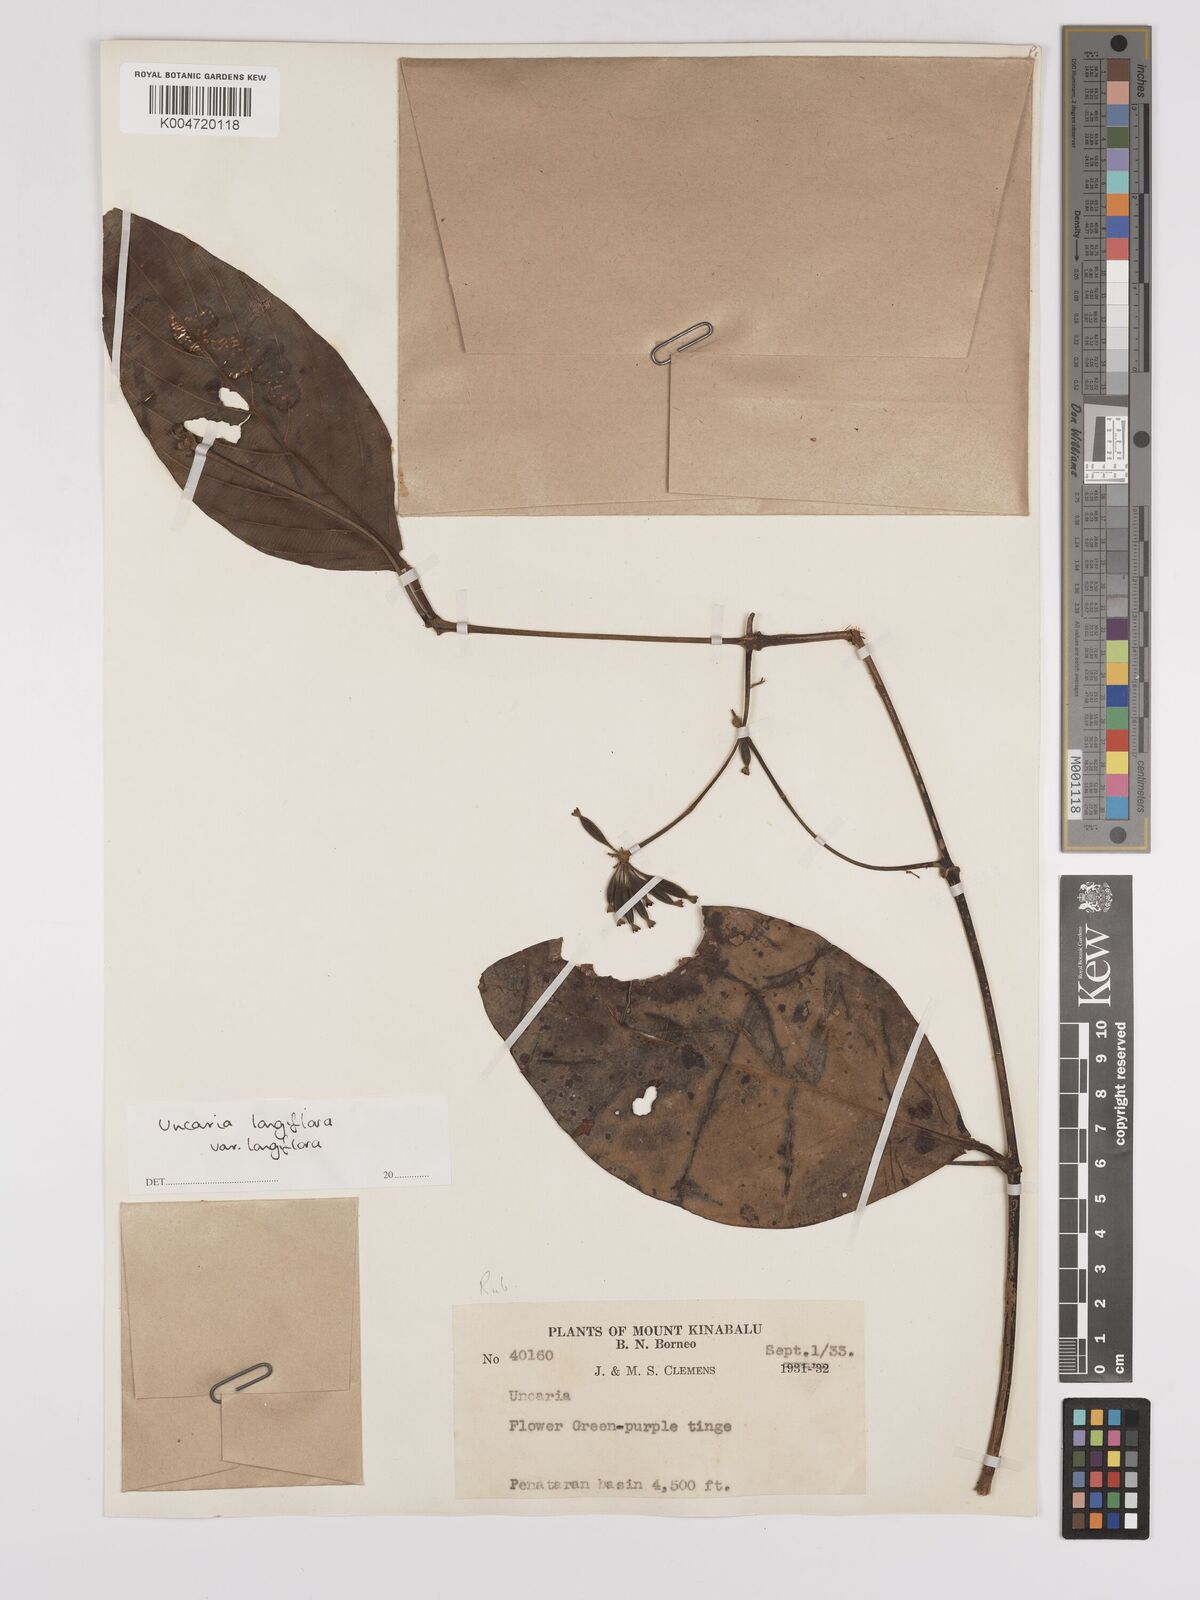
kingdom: Plantae
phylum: Tracheophyta
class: Magnoliopsida
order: Gentianales
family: Rubiaceae
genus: Uncaria
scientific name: Uncaria
